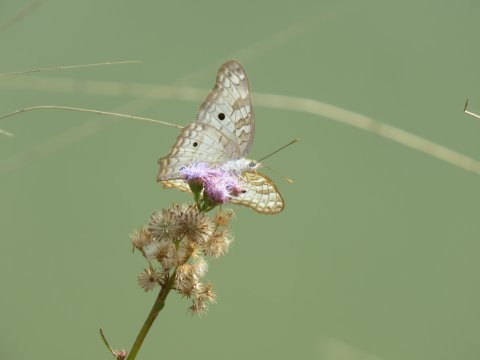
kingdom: Animalia
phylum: Arthropoda
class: Insecta
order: Lepidoptera
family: Nymphalidae
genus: Anartia
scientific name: Anartia jatrophae
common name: White Peacock
